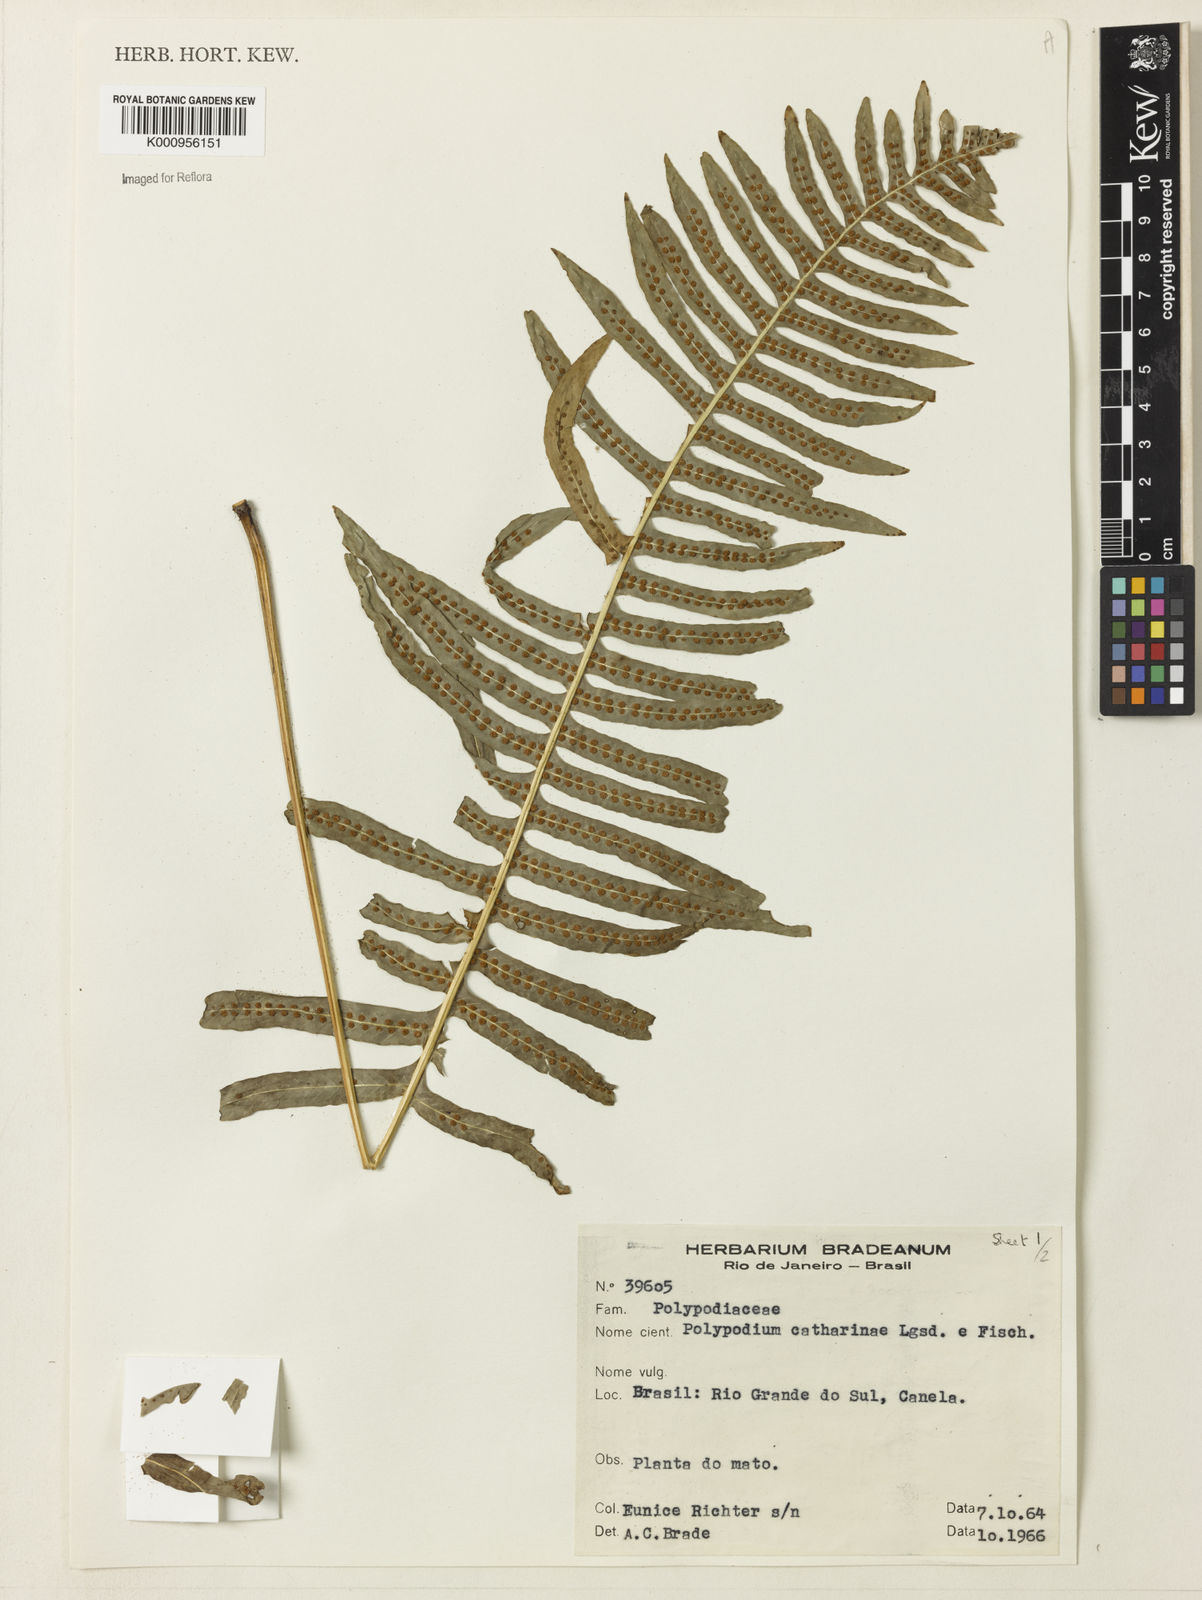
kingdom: Plantae
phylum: Tracheophyta
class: Polypodiopsida
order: Polypodiales
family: Polypodiaceae
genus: Serpocaulon
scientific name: Serpocaulon catharinae
